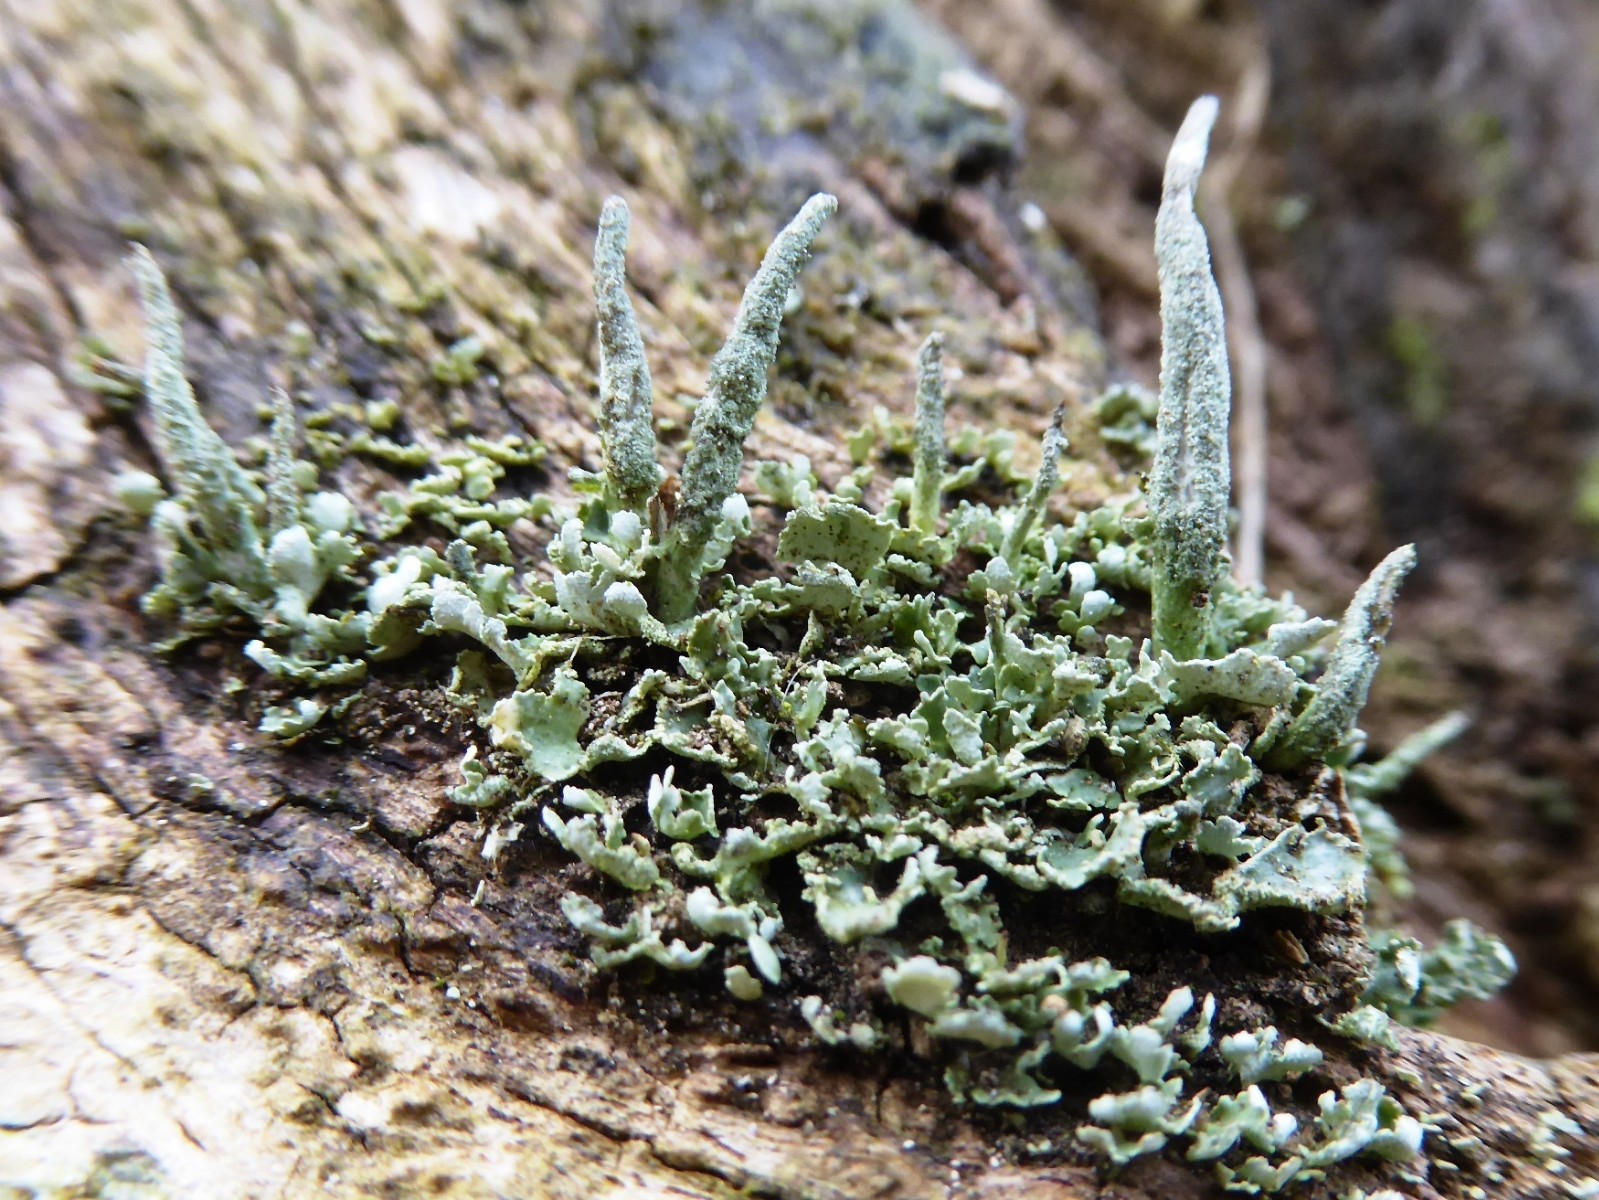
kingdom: Fungi
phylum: Ascomycota
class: Lecanoromycetes
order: Lecanorales
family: Cladoniaceae
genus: Cladonia
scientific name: Cladonia coniocraea
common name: træfods-bægerlav
